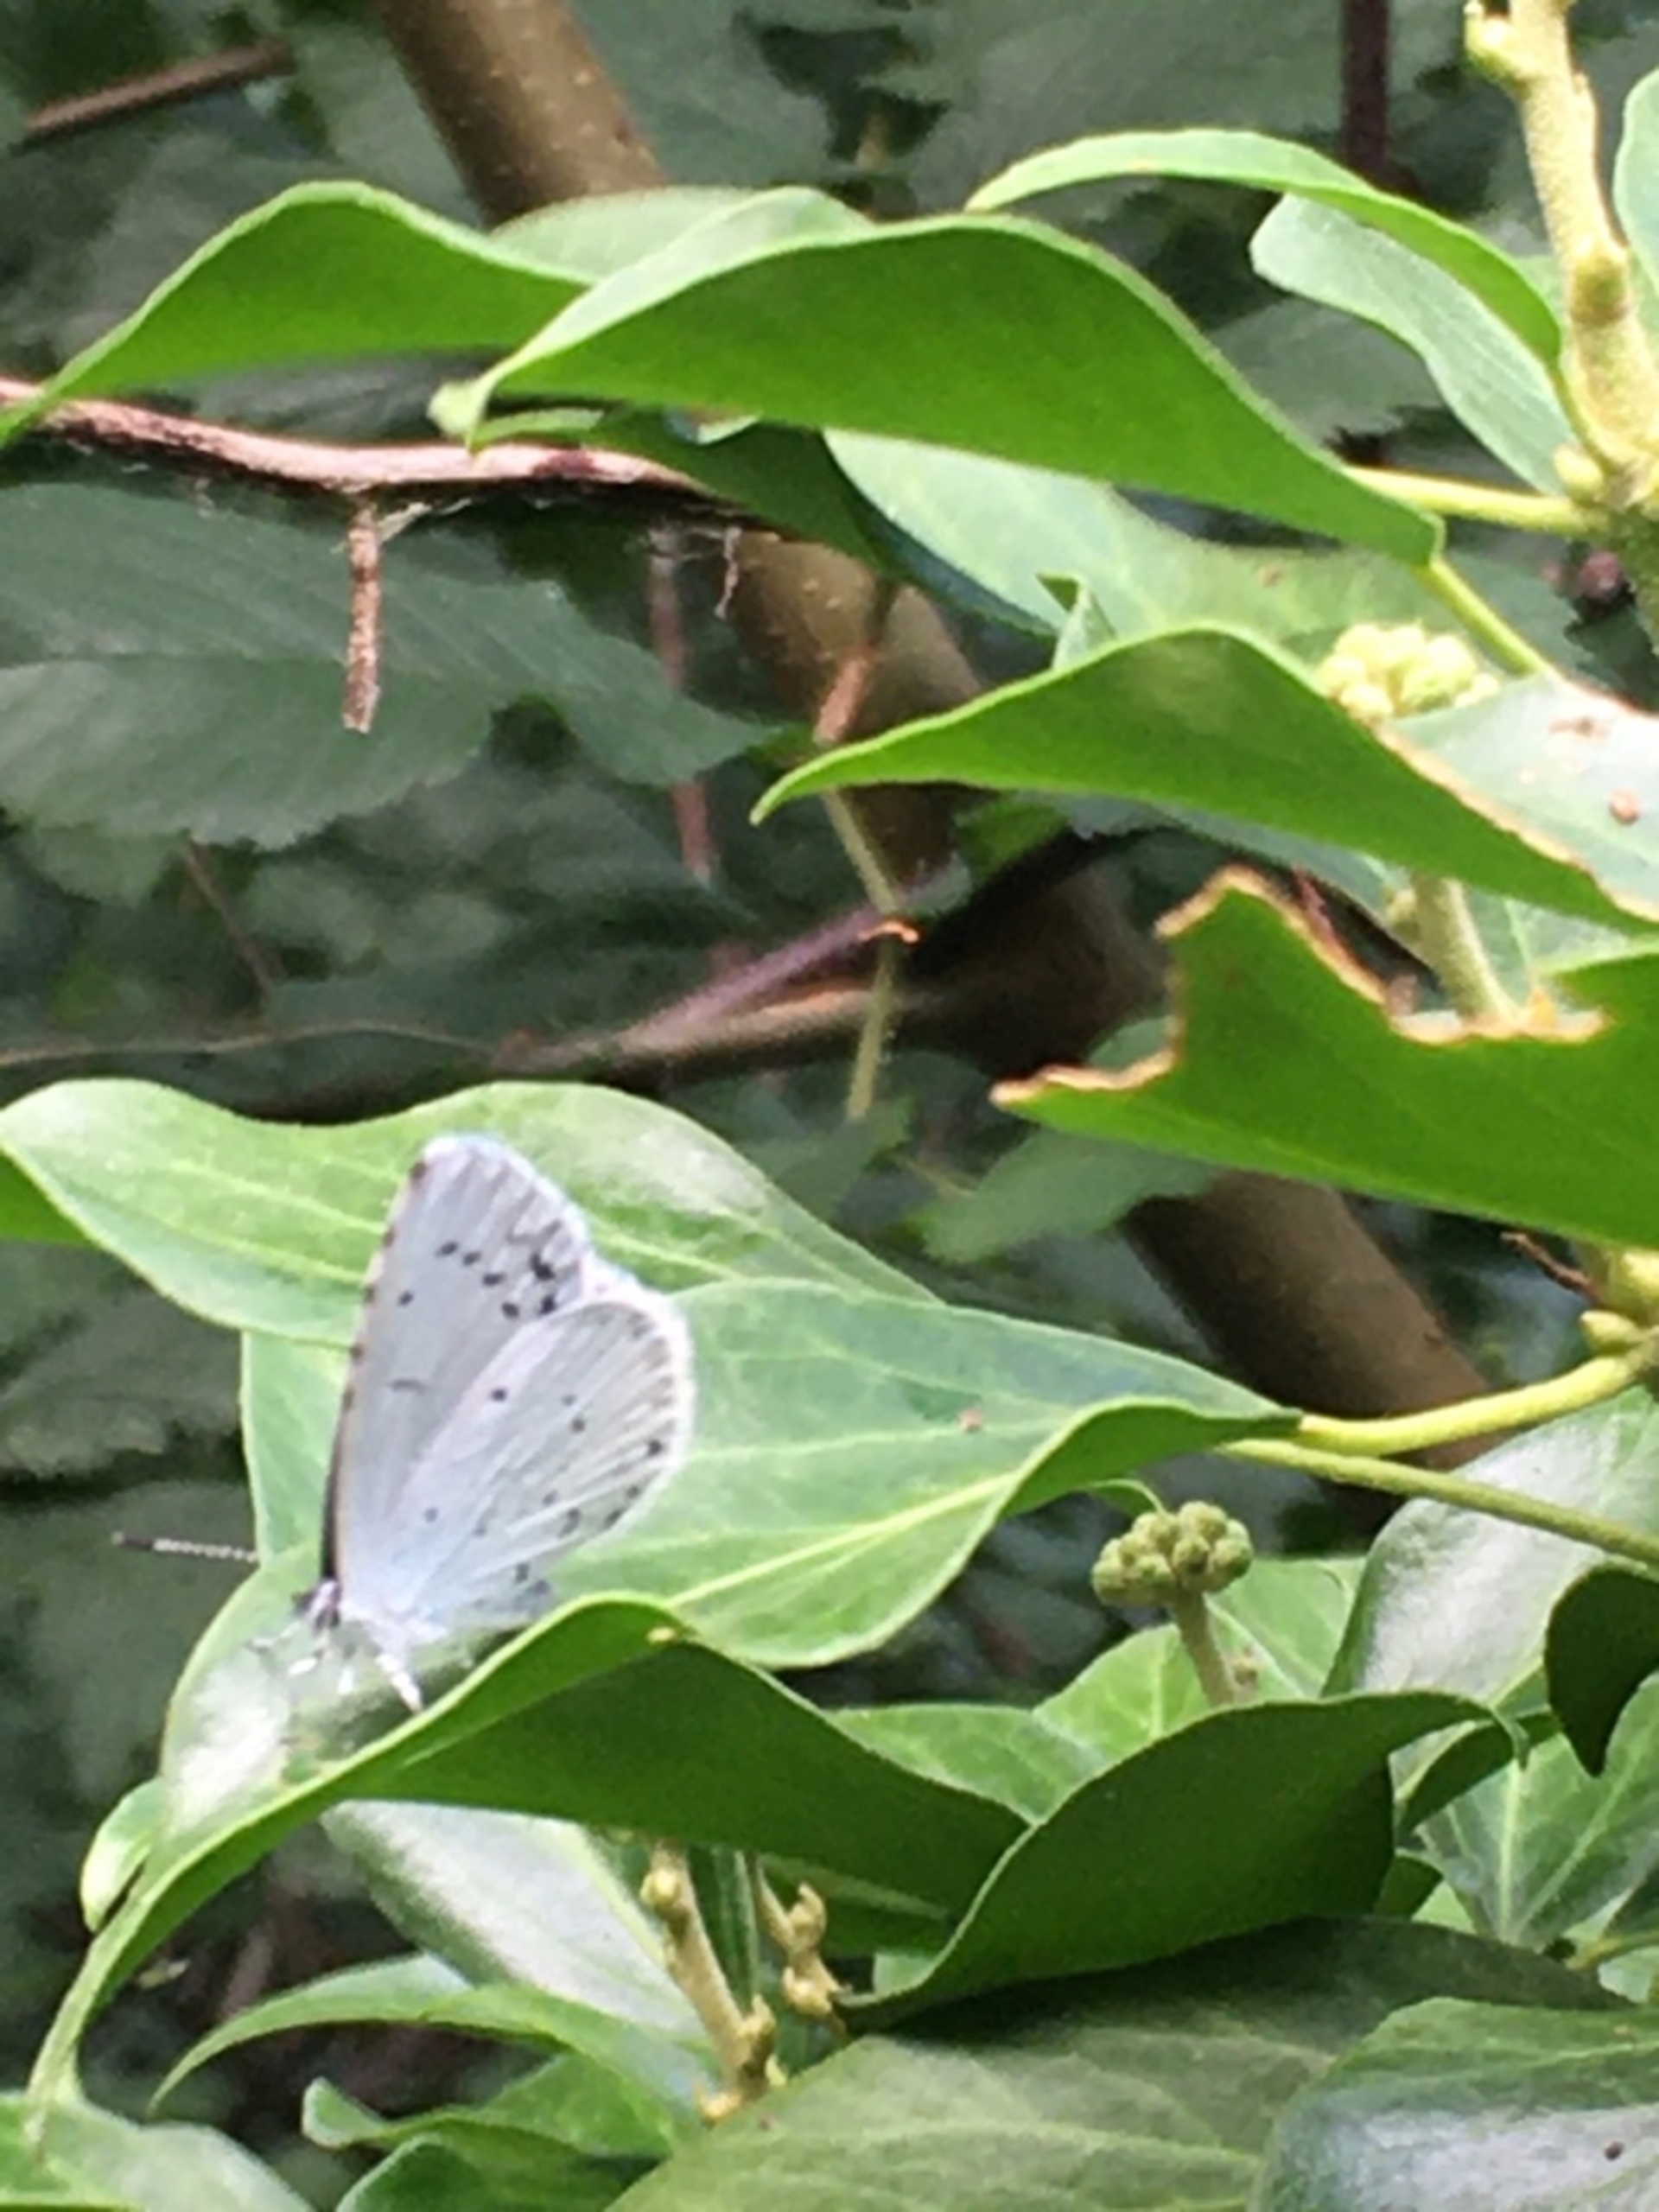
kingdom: Animalia
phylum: Arthropoda
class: Insecta
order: Lepidoptera
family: Lycaenidae
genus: Celastrina
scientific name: Celastrina argiolus
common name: Skovblåfugl
